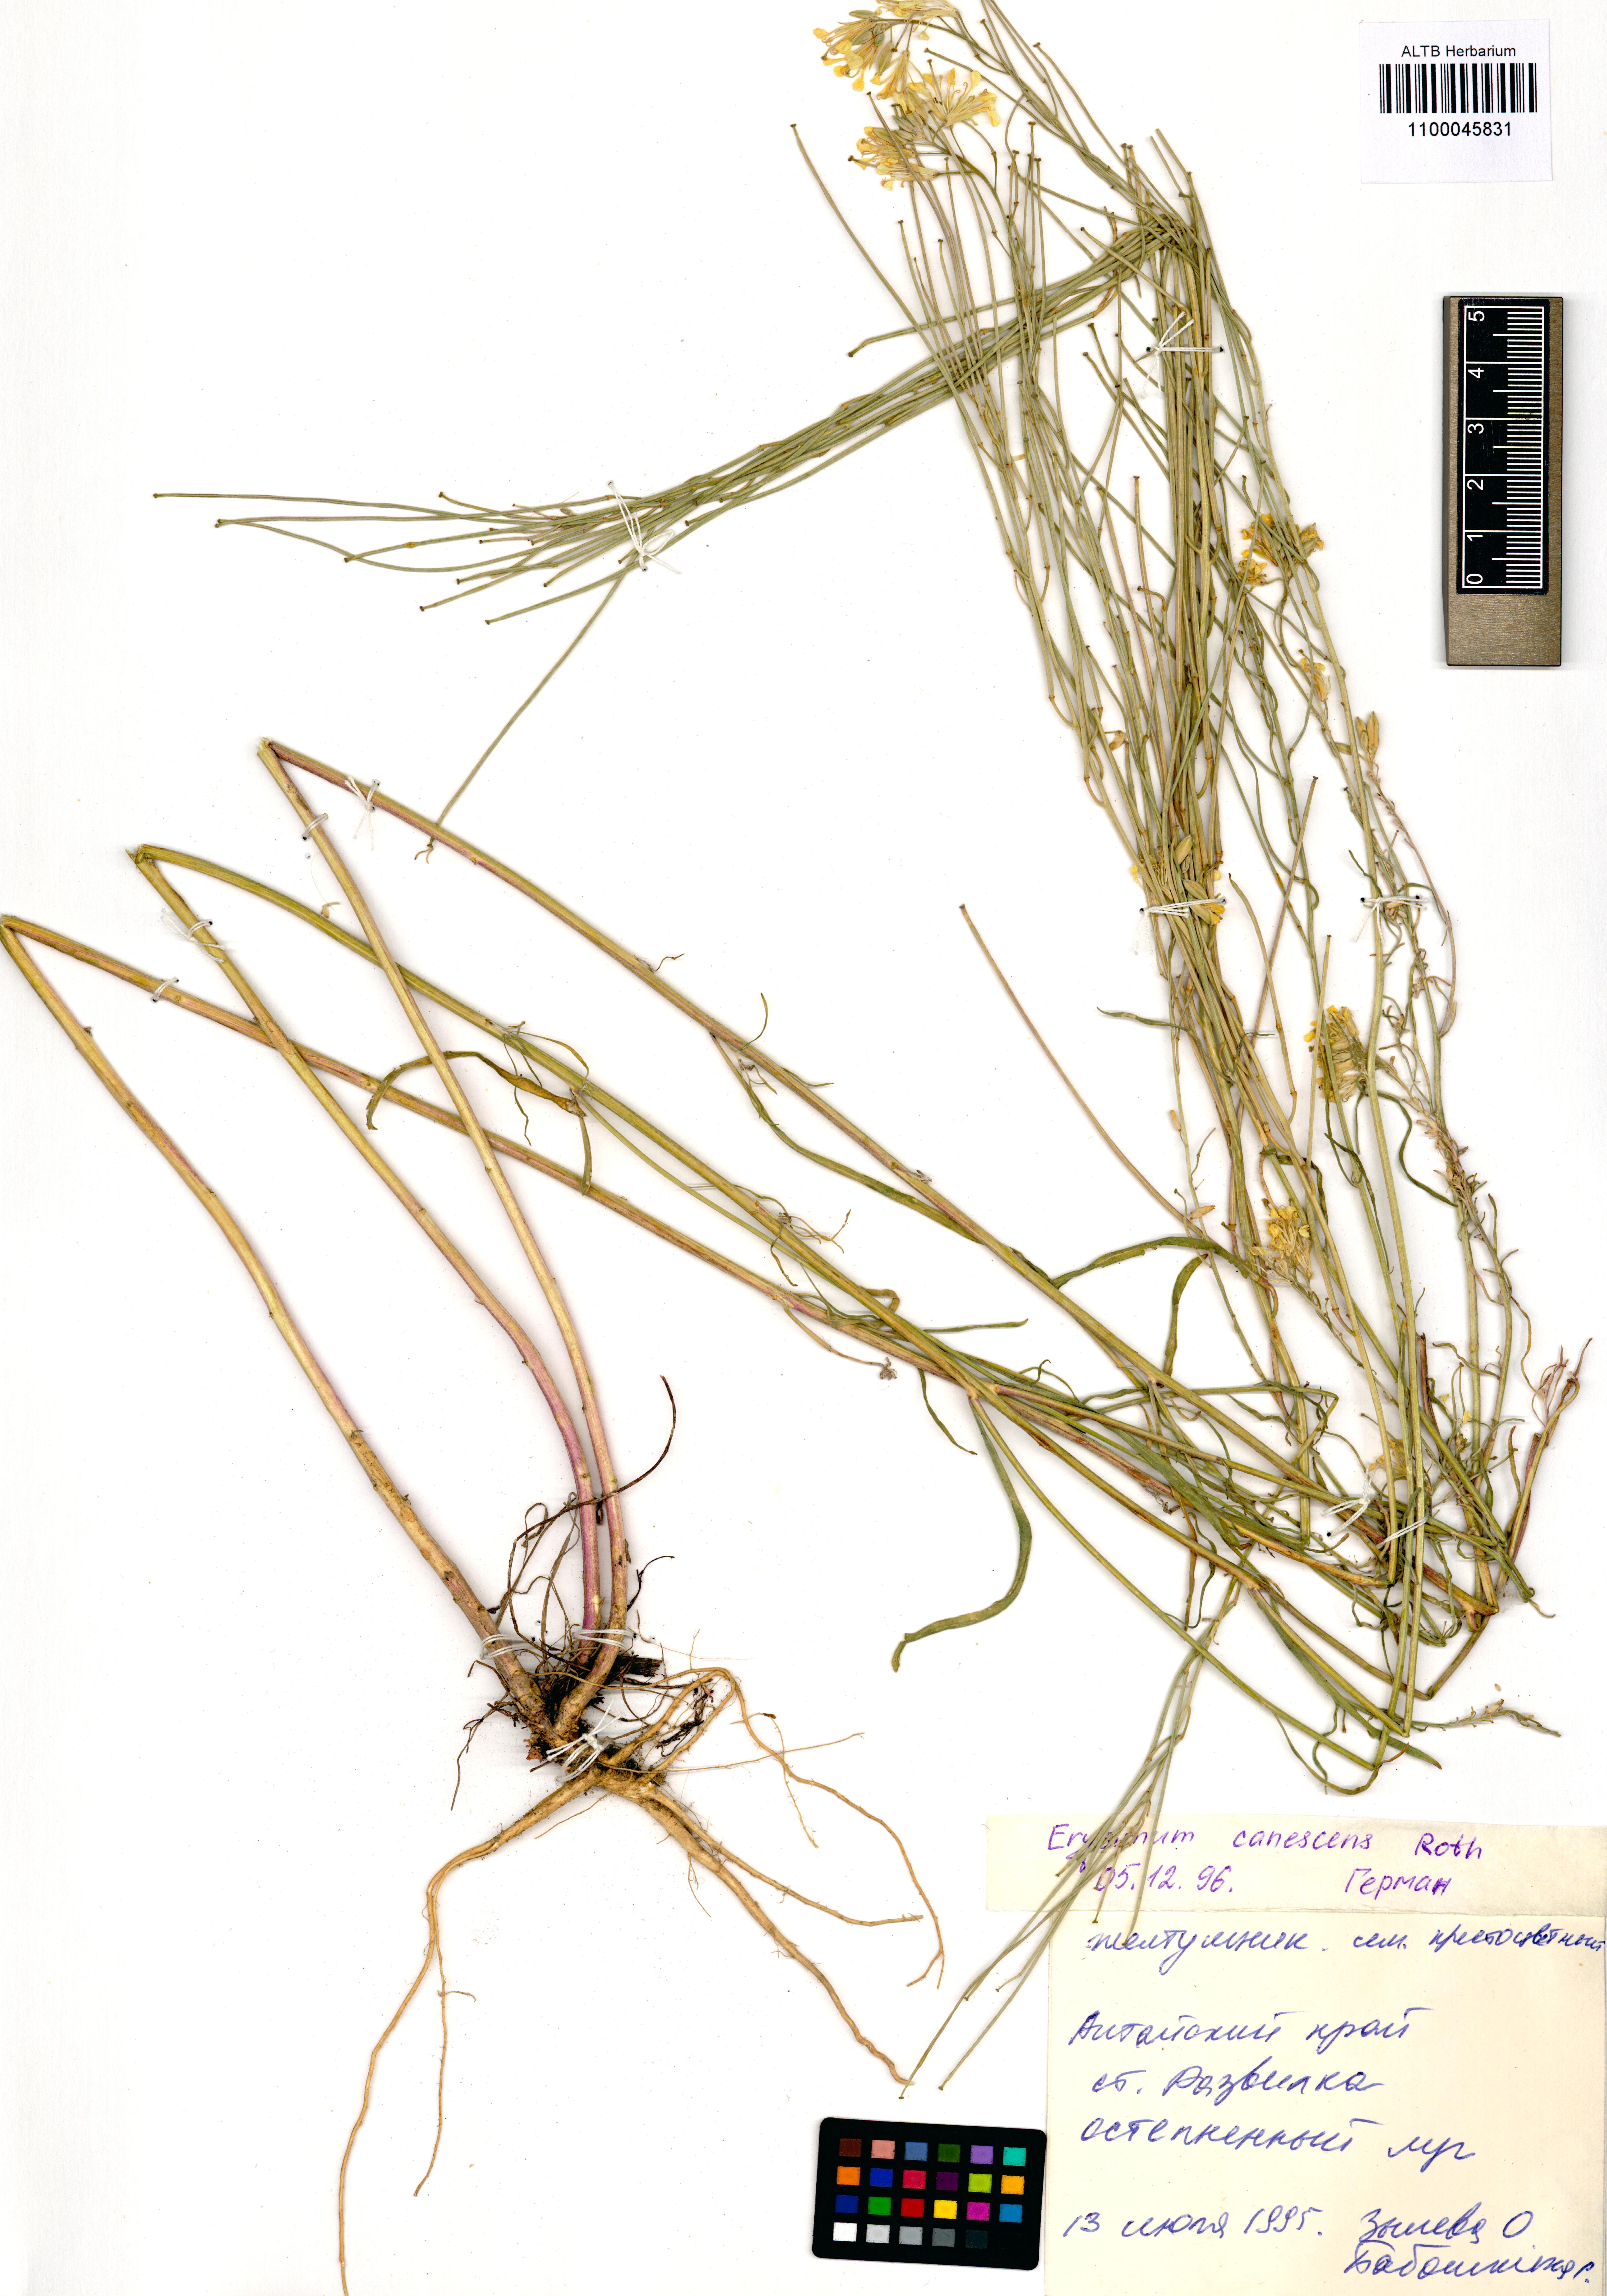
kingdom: Plantae
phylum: Tracheophyta
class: Magnoliopsida
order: Brassicales
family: Brassicaceae
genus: Erysimum
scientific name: Erysimum canescens
